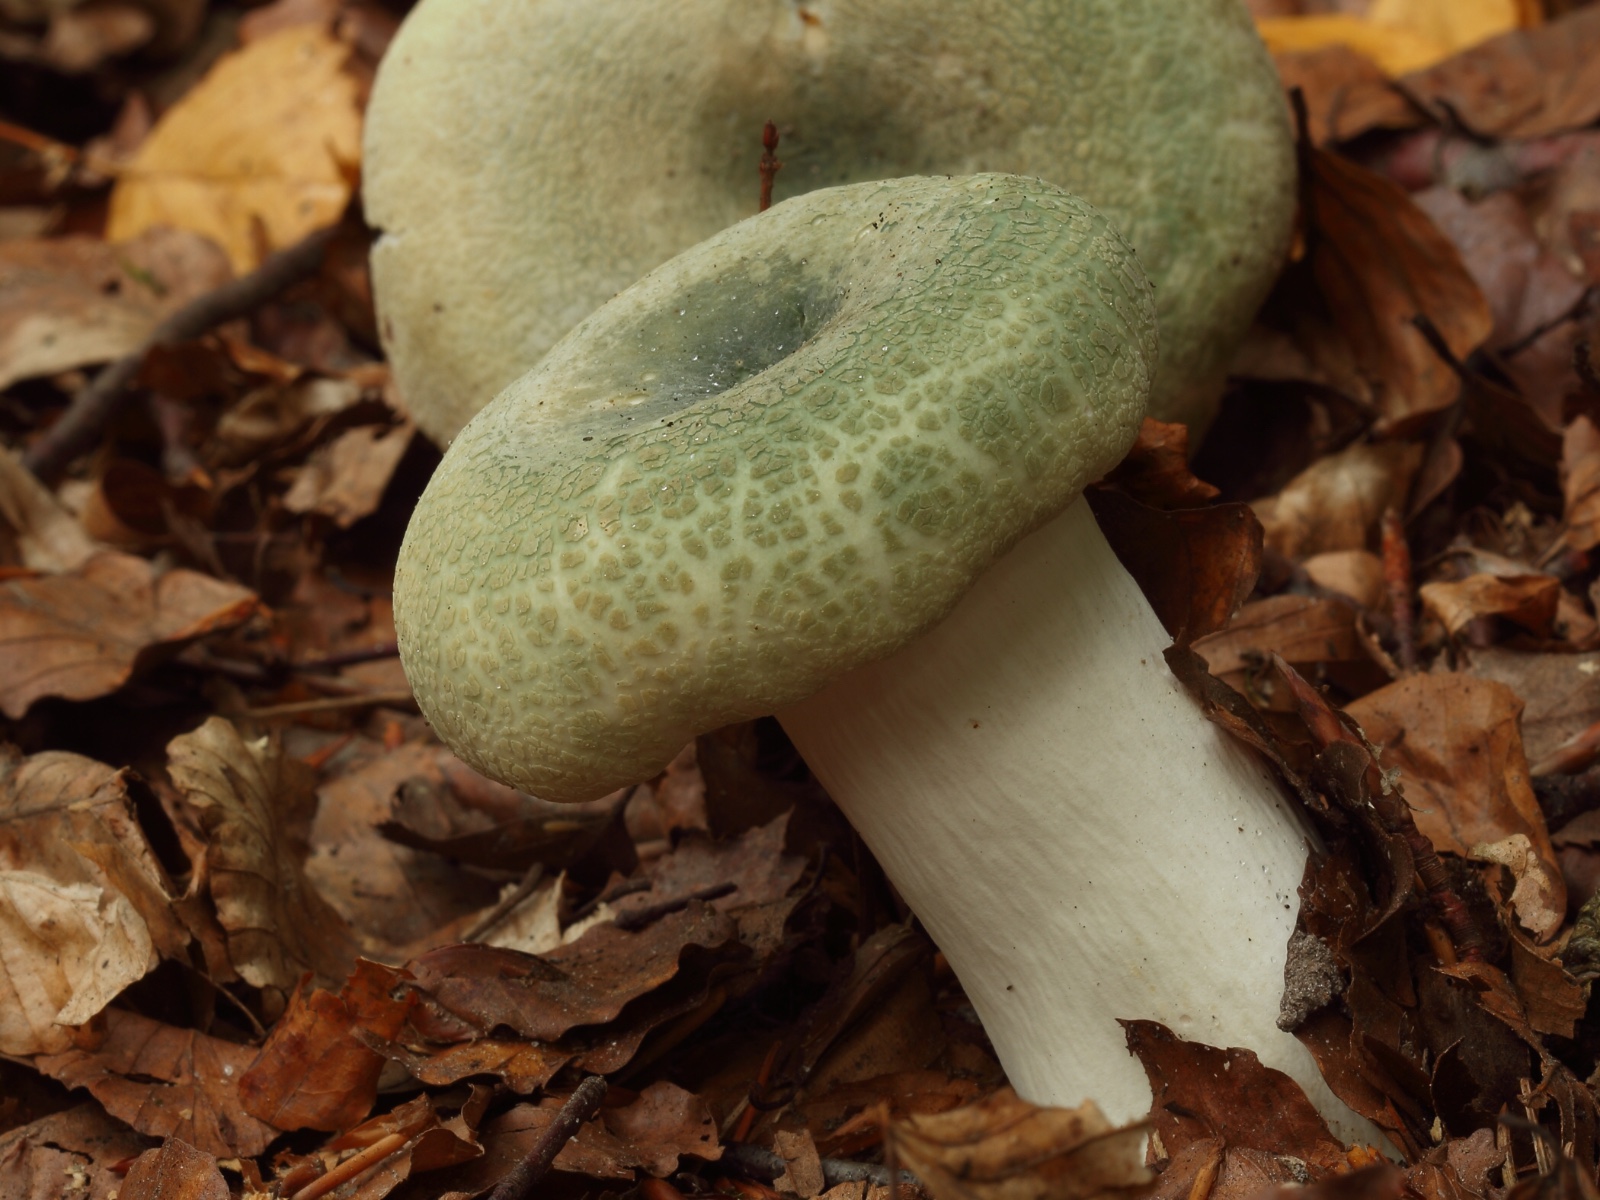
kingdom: Fungi
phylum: Basidiomycota
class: Agaricomycetes
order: Russulales
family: Russulaceae
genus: Russula
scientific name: Russula virescens
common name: spanskgrøn skørhat
